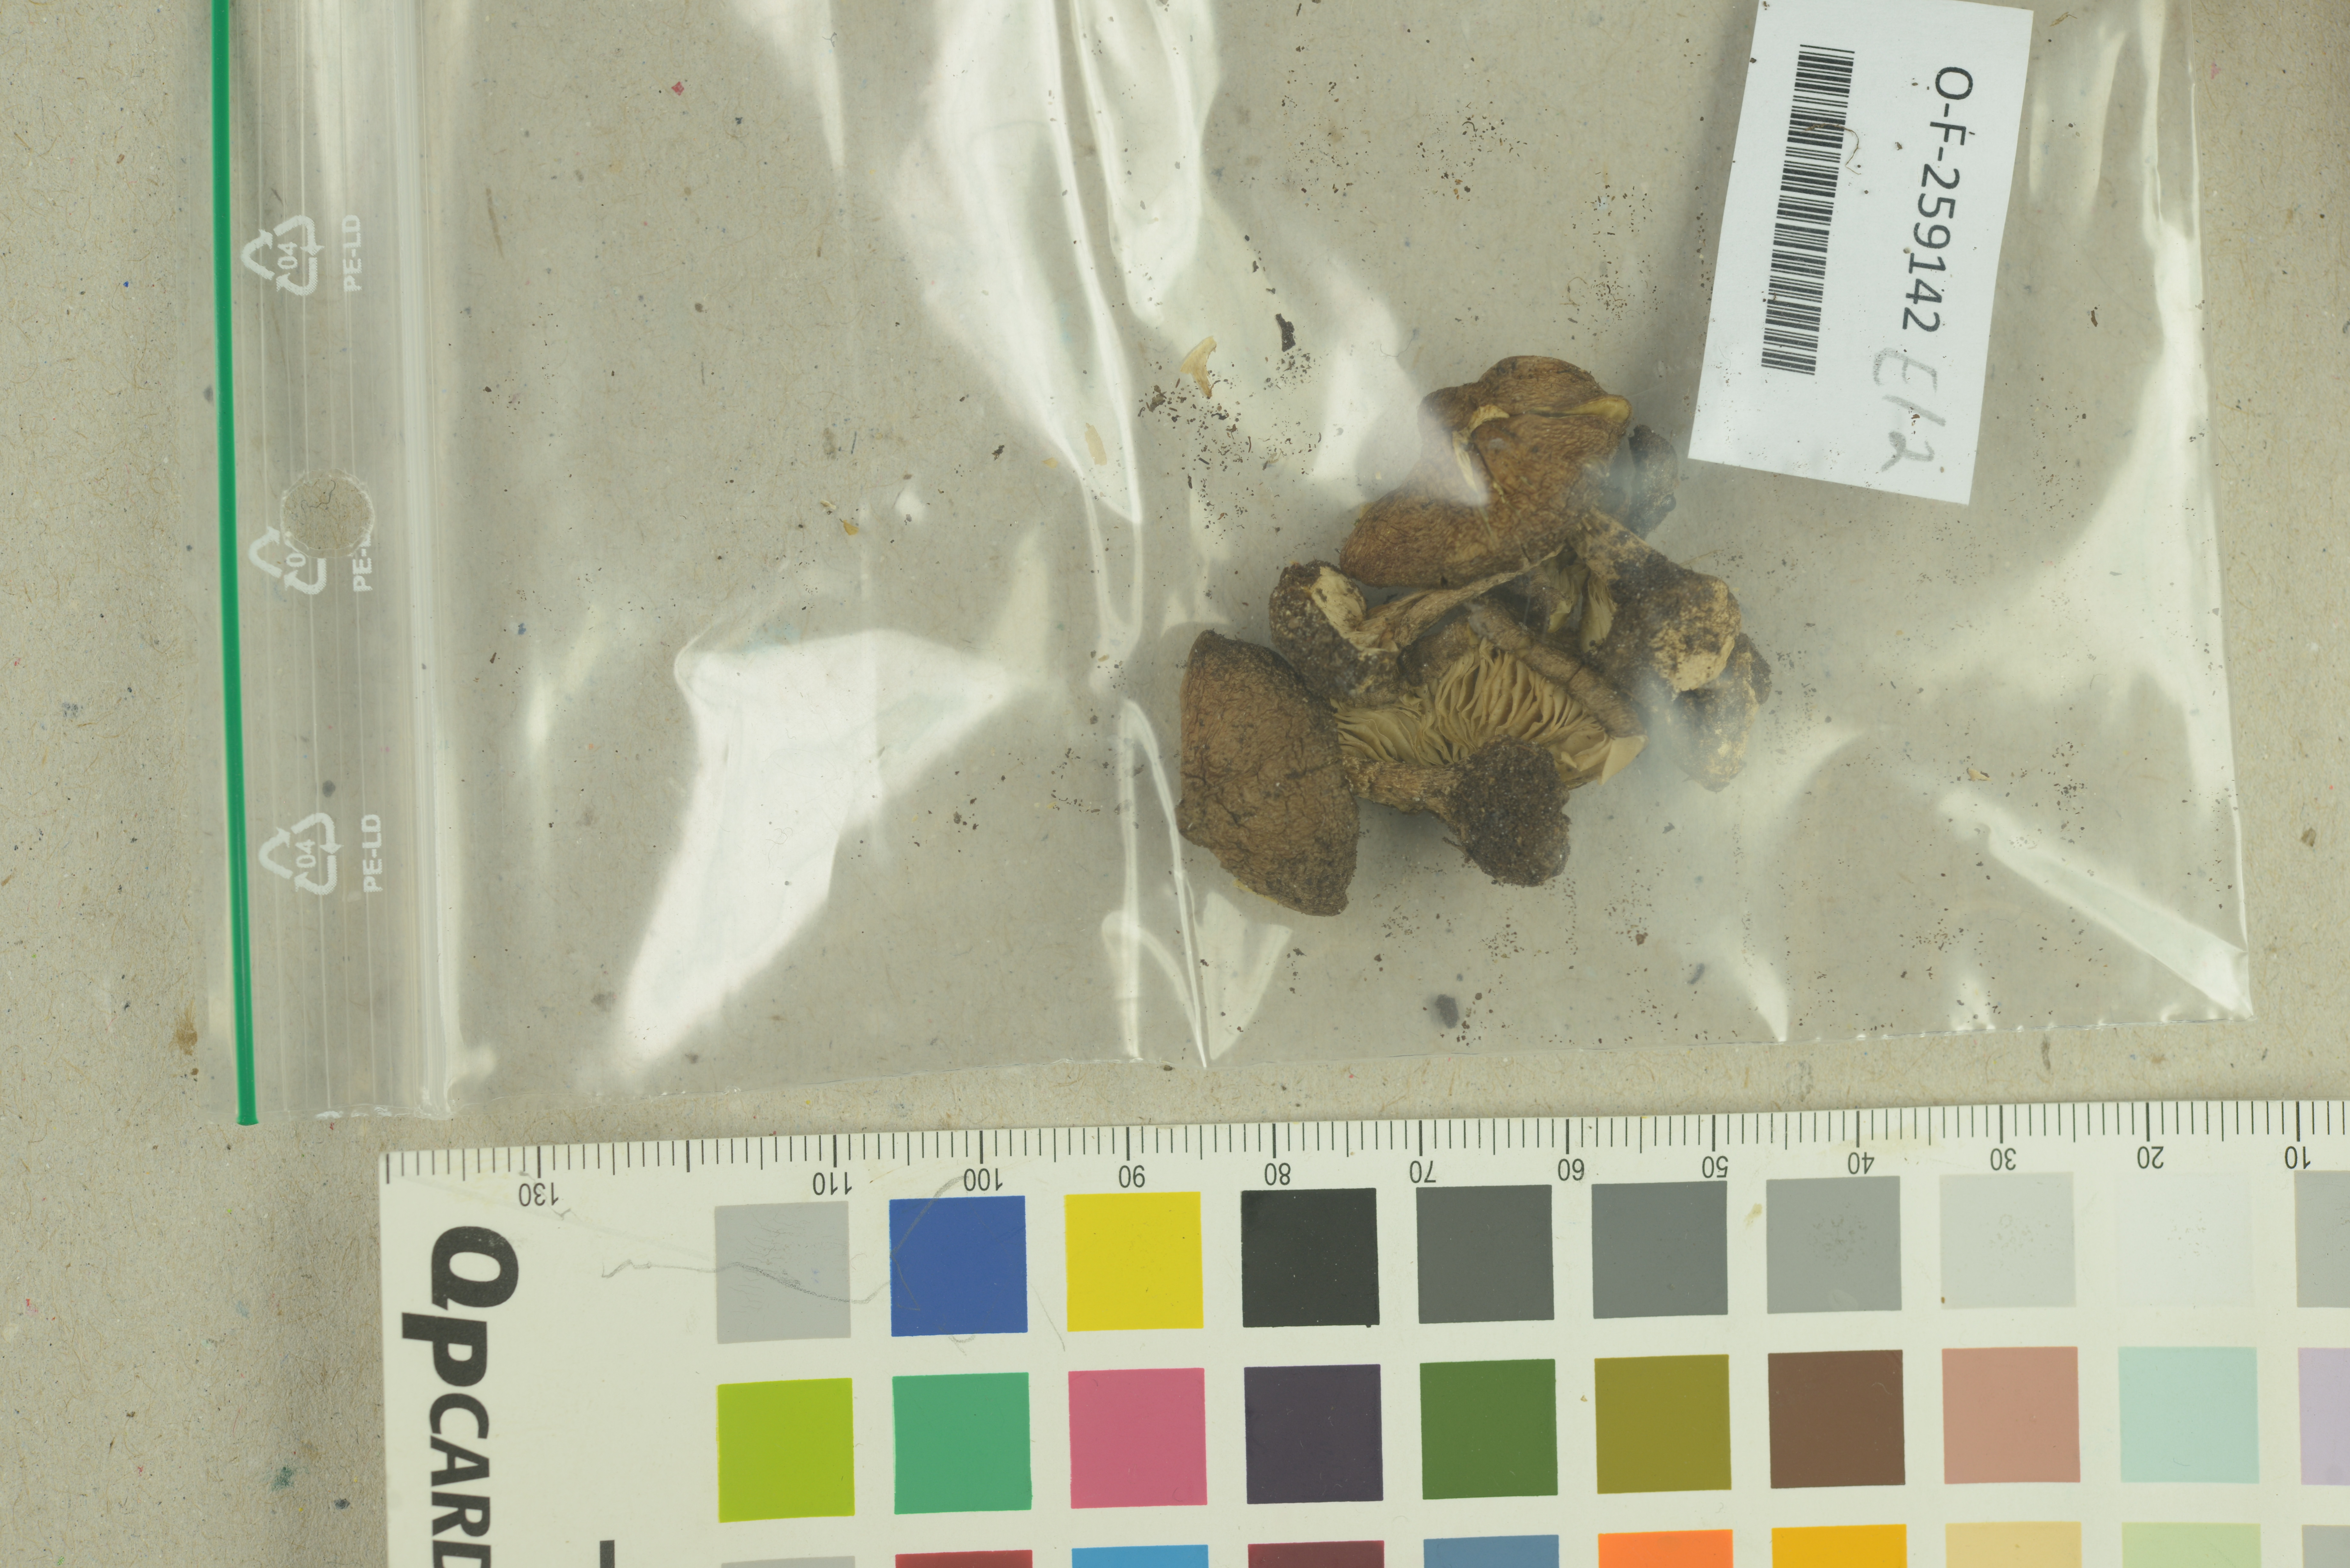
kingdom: Fungi
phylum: Basidiomycota
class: Agaricomycetes
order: Agaricales
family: Inocybaceae
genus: Inocybe
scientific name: Inocybe napipes
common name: Bulbous fibrecap
